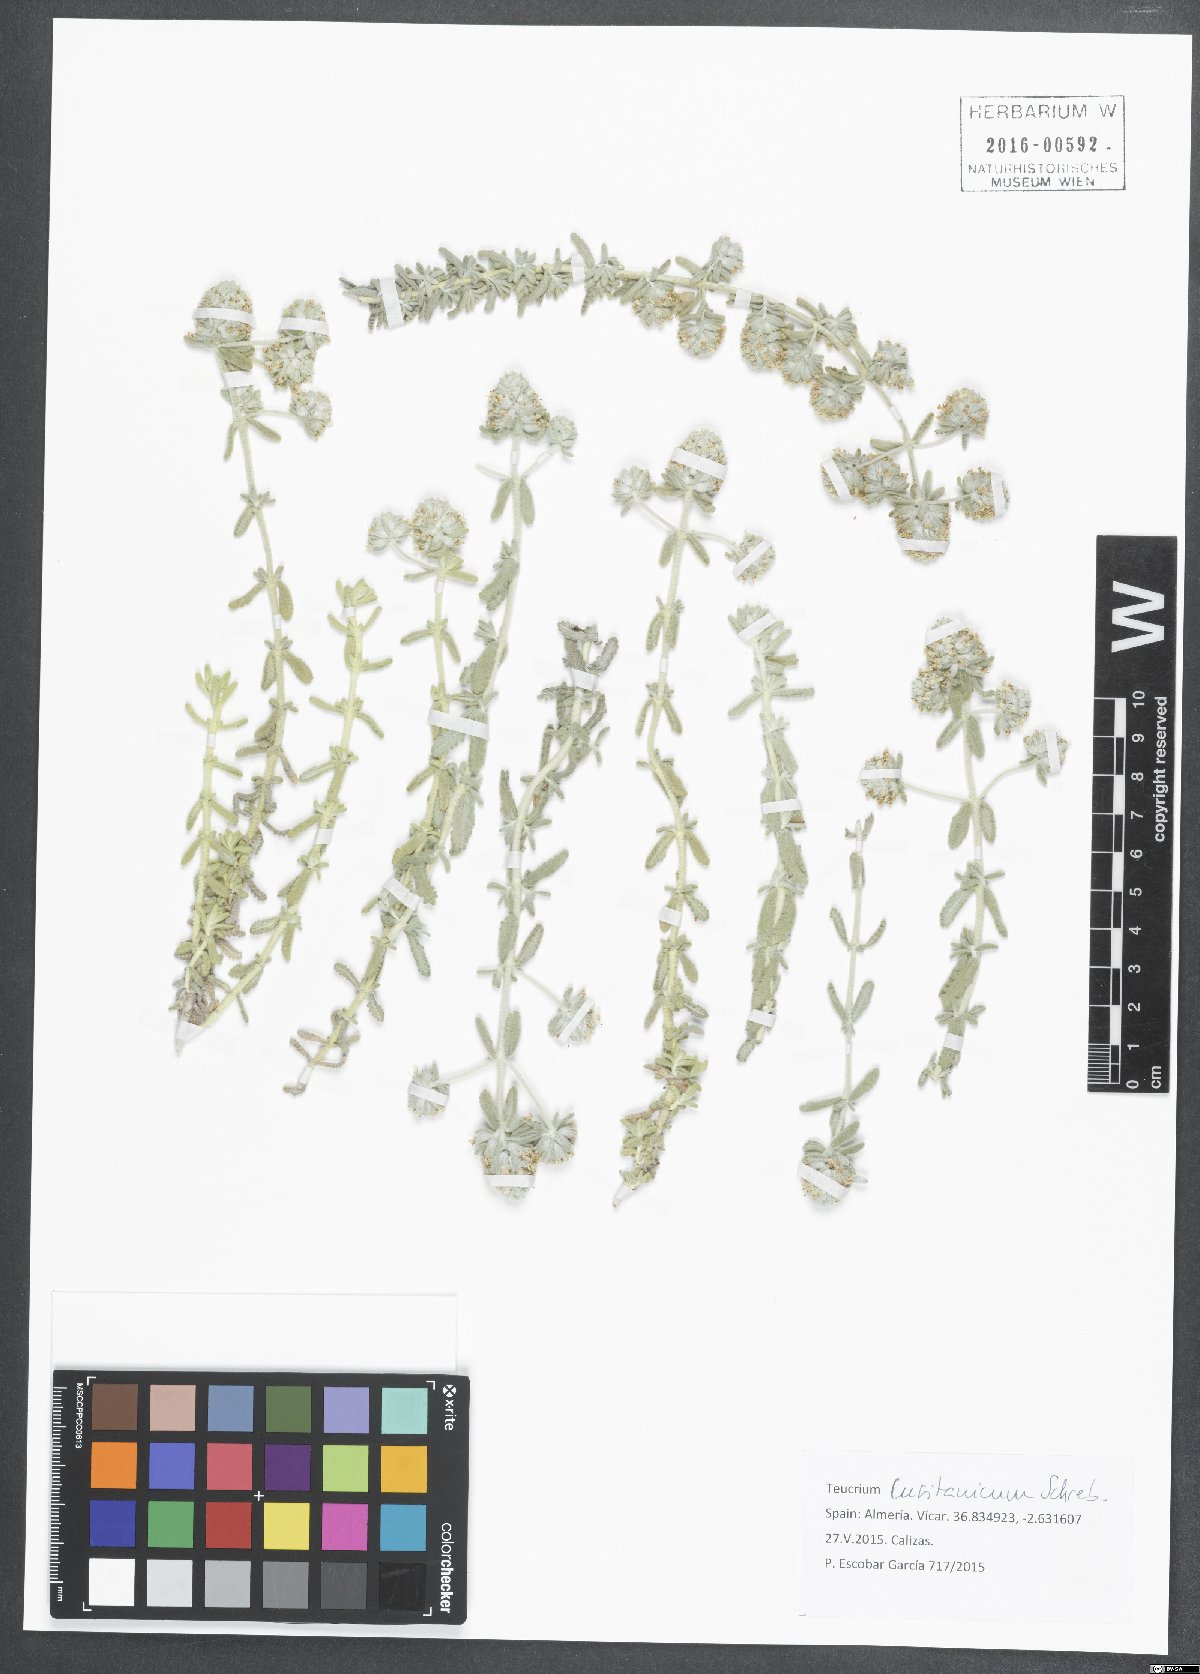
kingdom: Plantae
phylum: Tracheophyta
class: Magnoliopsida
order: Lamiales
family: Lamiaceae
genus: Teucrium
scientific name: Teucrium lusitanicum
